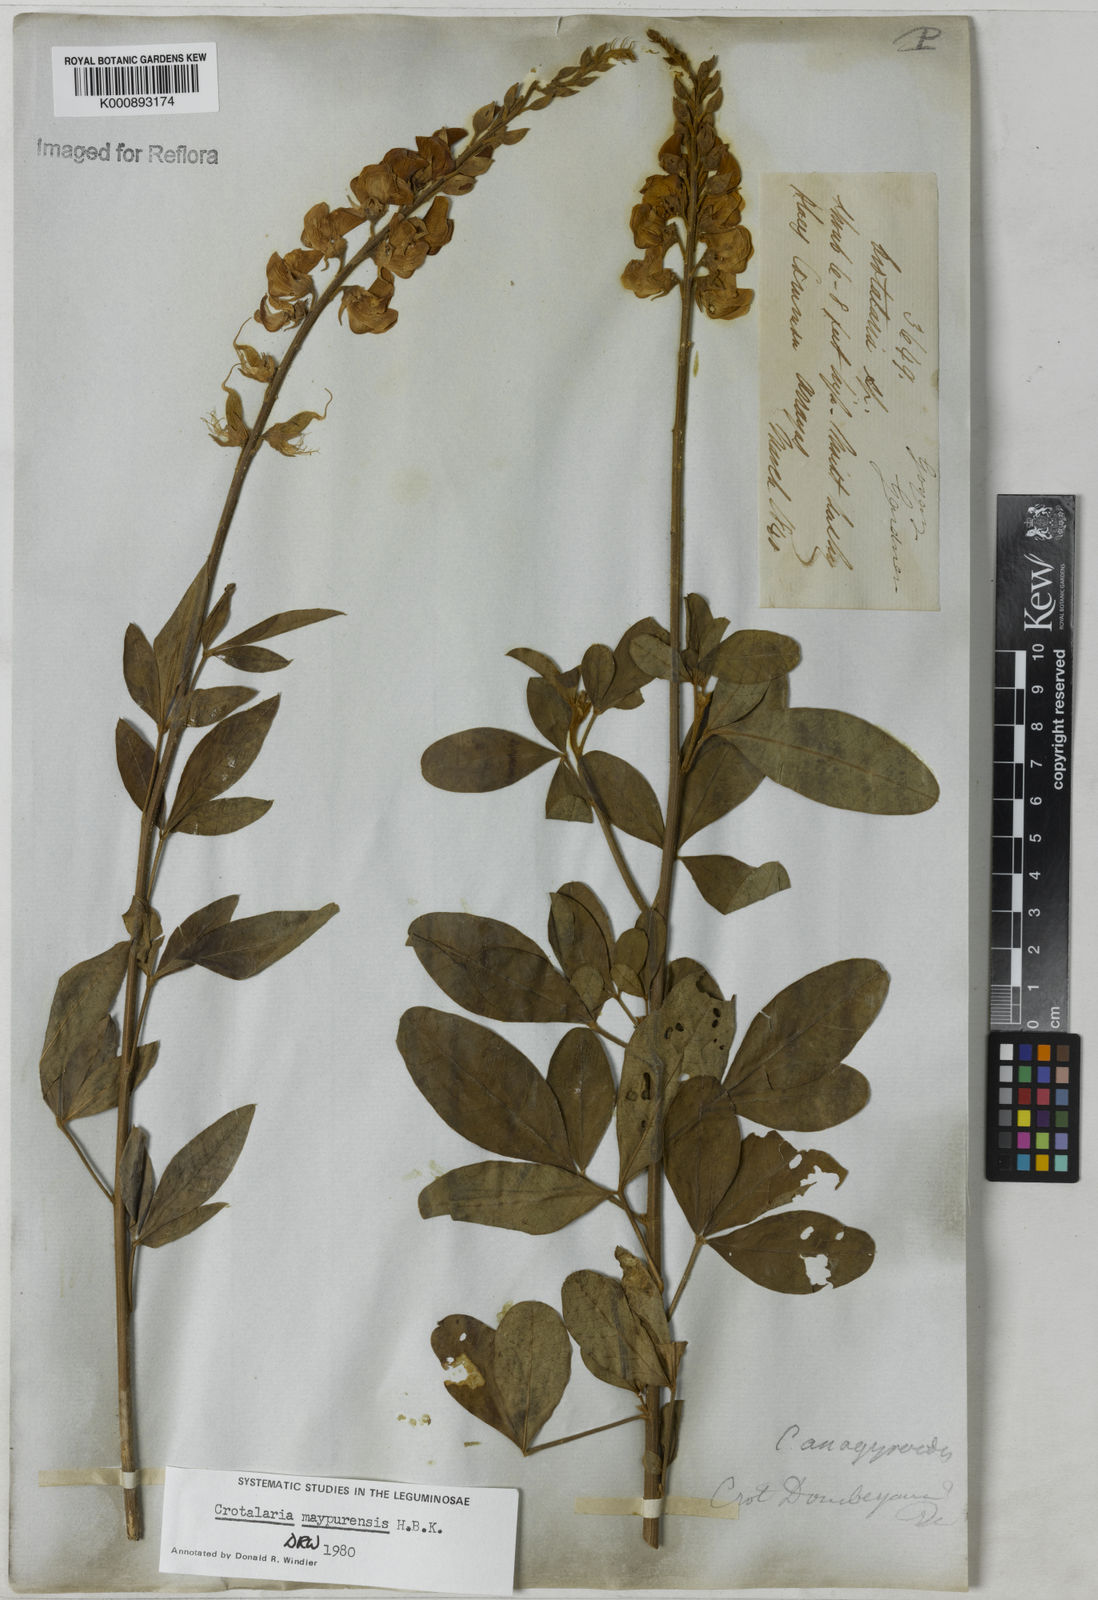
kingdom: Plantae
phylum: Tracheophyta
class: Magnoliopsida
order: Fabales
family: Fabaceae
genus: Crotalaria
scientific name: Crotalaria maypurensis
